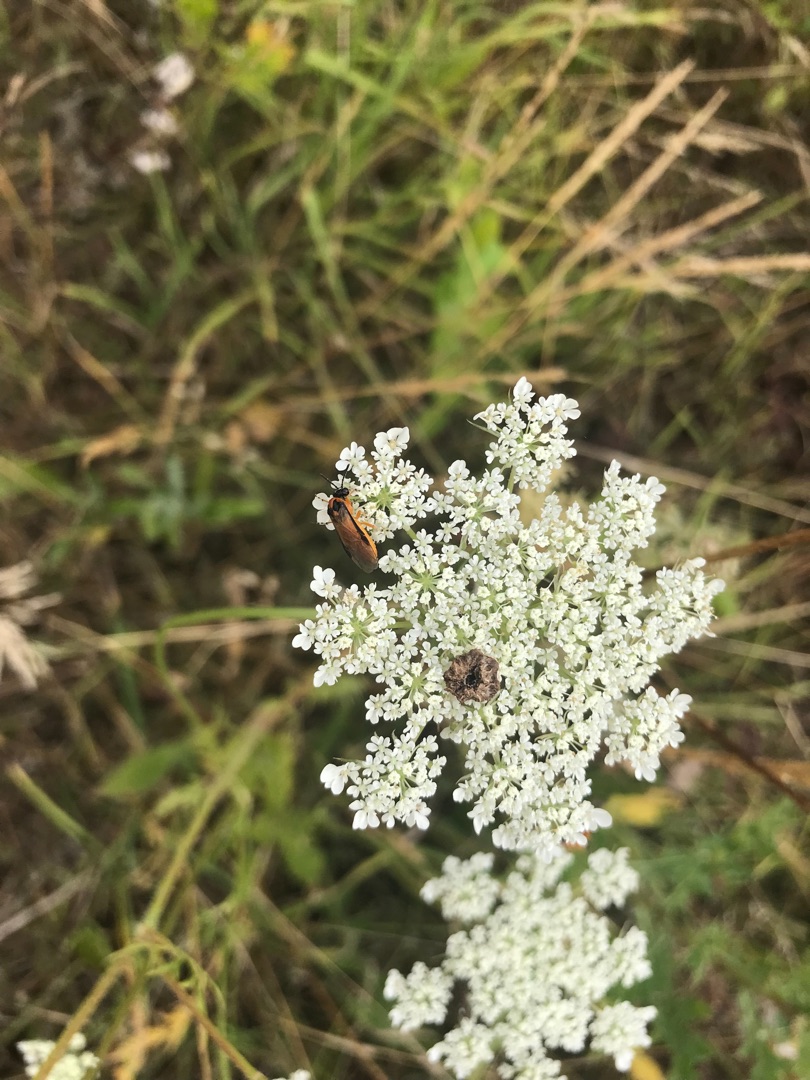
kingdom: Animalia
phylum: Arthropoda
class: Insecta
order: Hymenoptera
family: Tenthredinidae
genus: Athalia
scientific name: Athalia rosae
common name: Kålbladhveps
